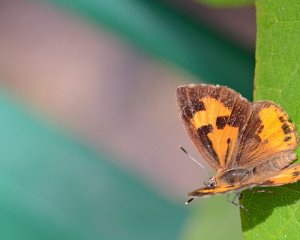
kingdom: Animalia
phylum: Arthropoda
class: Insecta
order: Lepidoptera
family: Lycaenidae
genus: Feniseca
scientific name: Feniseca tarquinius
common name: Harvester
